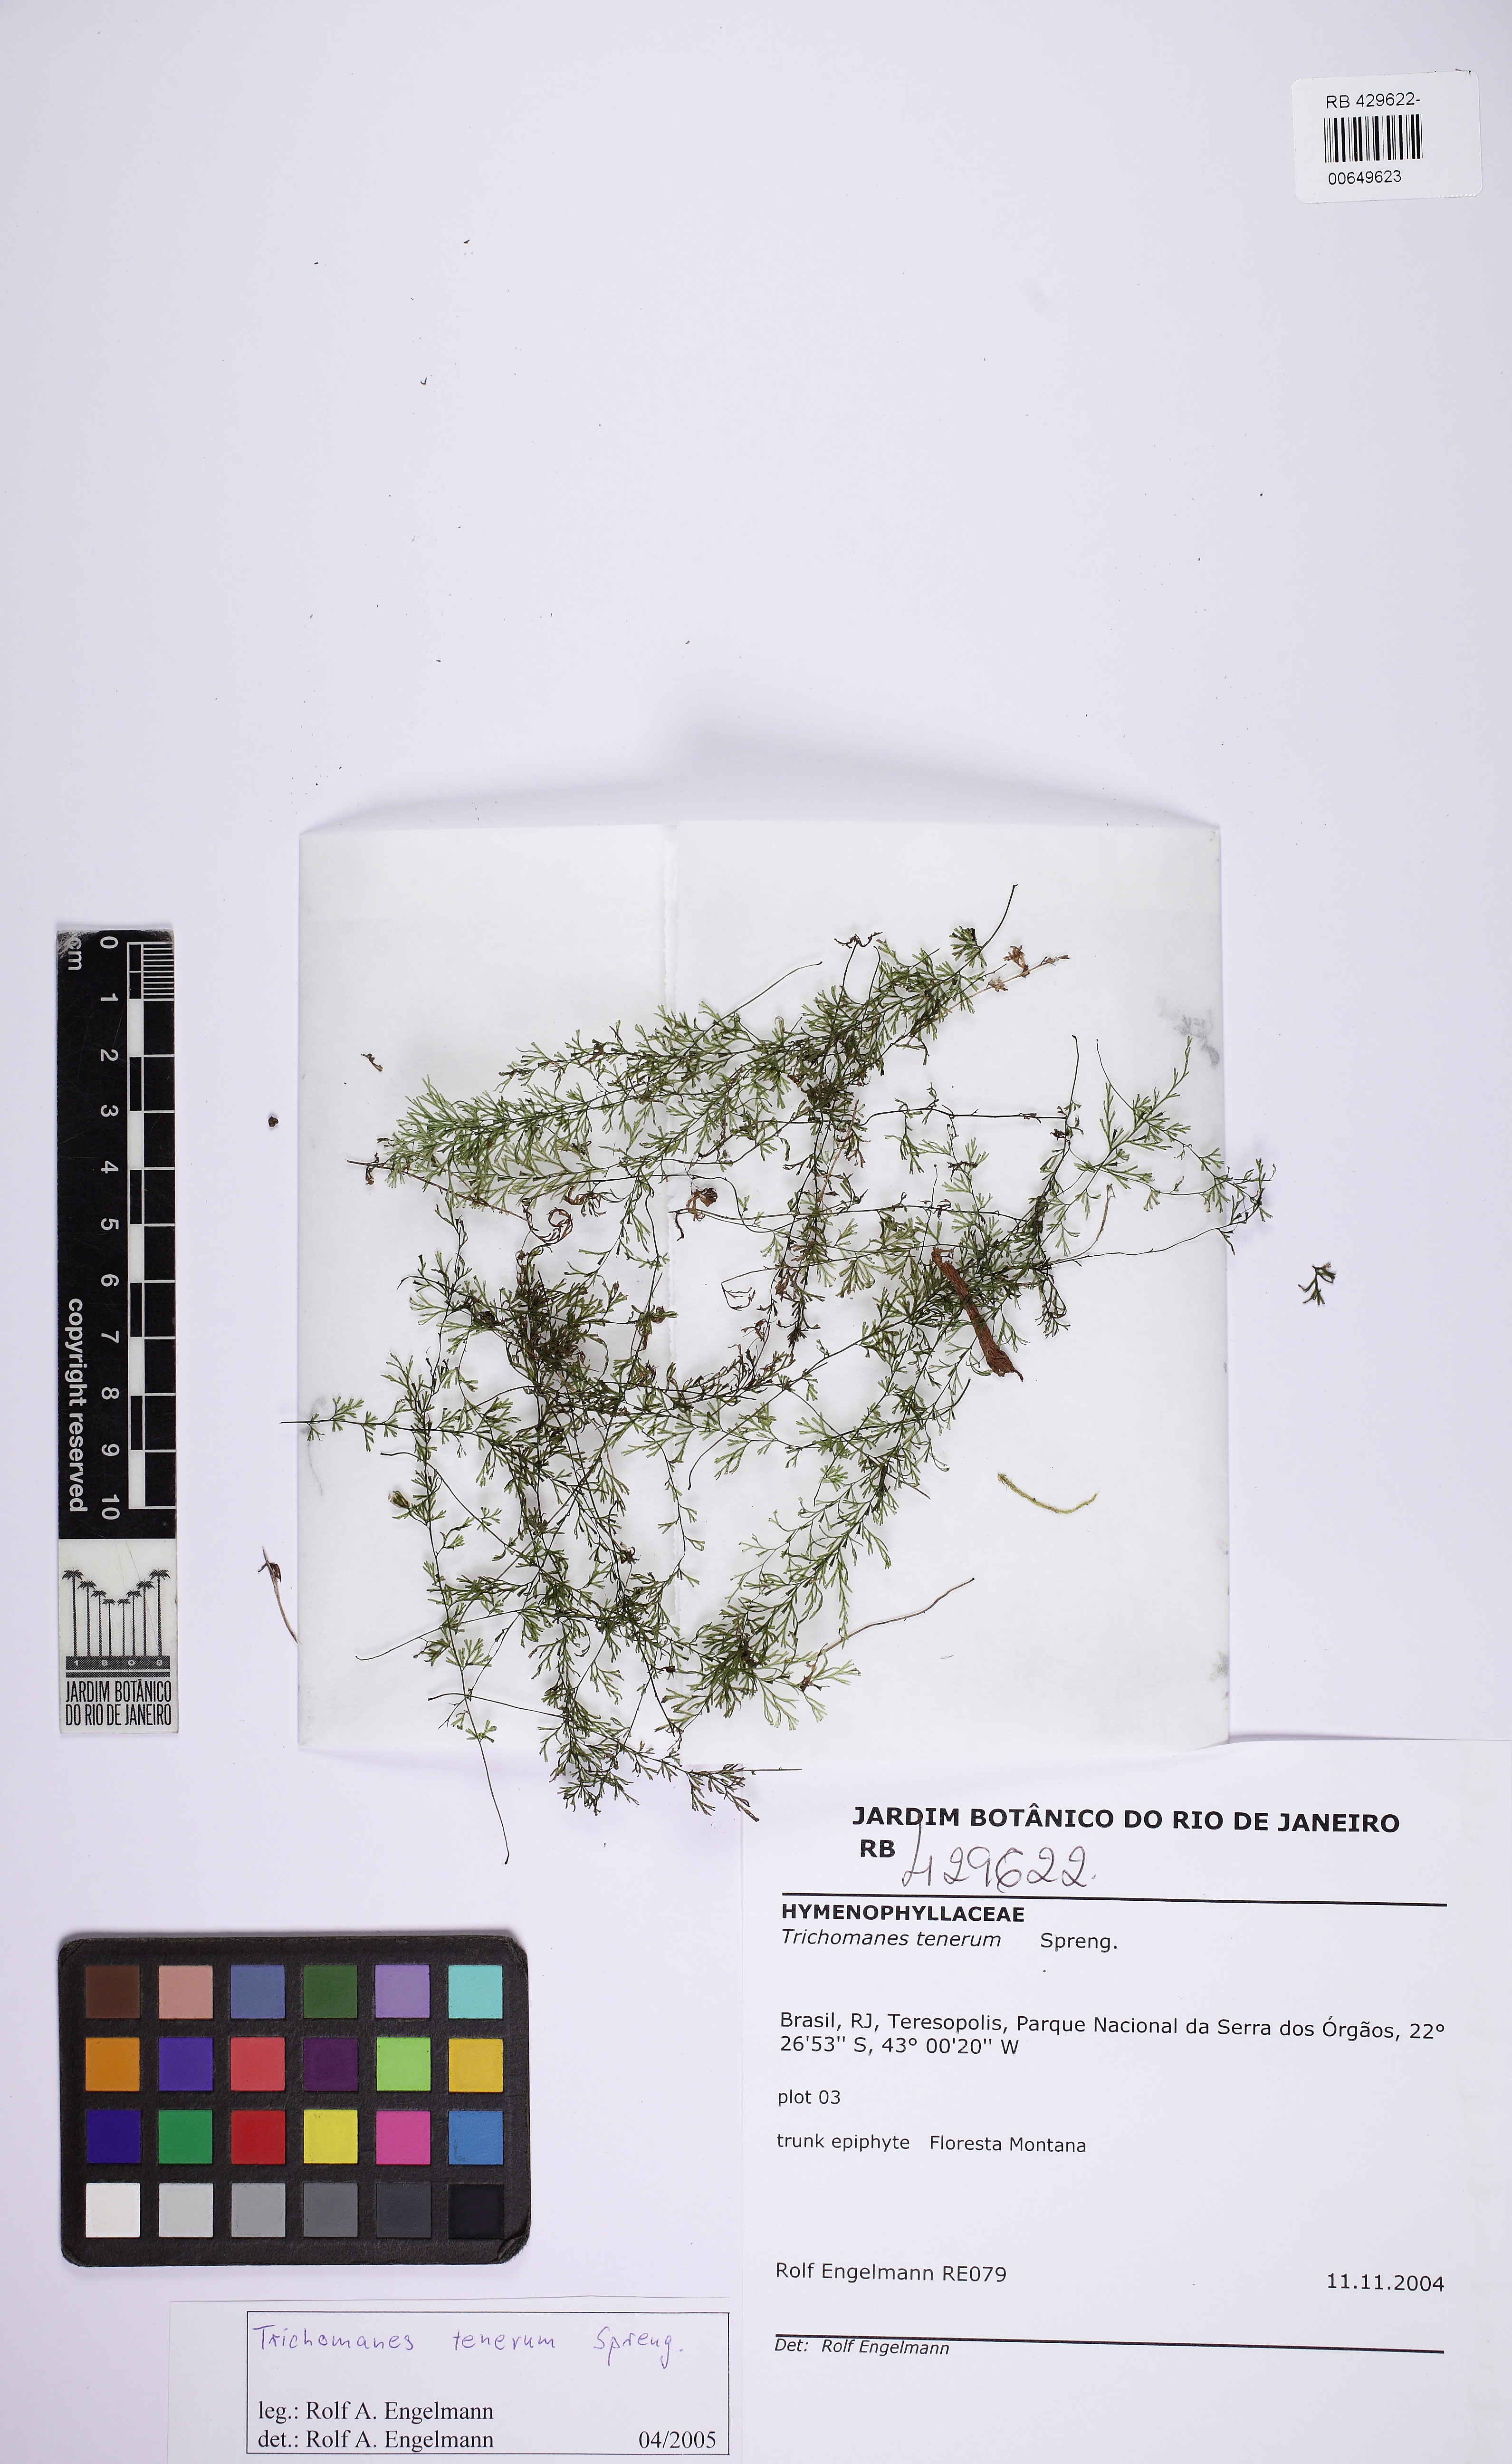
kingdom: Plantae
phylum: Tracheophyta
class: Polypodiopsida
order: Hymenophyllales
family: Hymenophyllaceae
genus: Polyphlebium
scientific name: Polyphlebium angustatum
